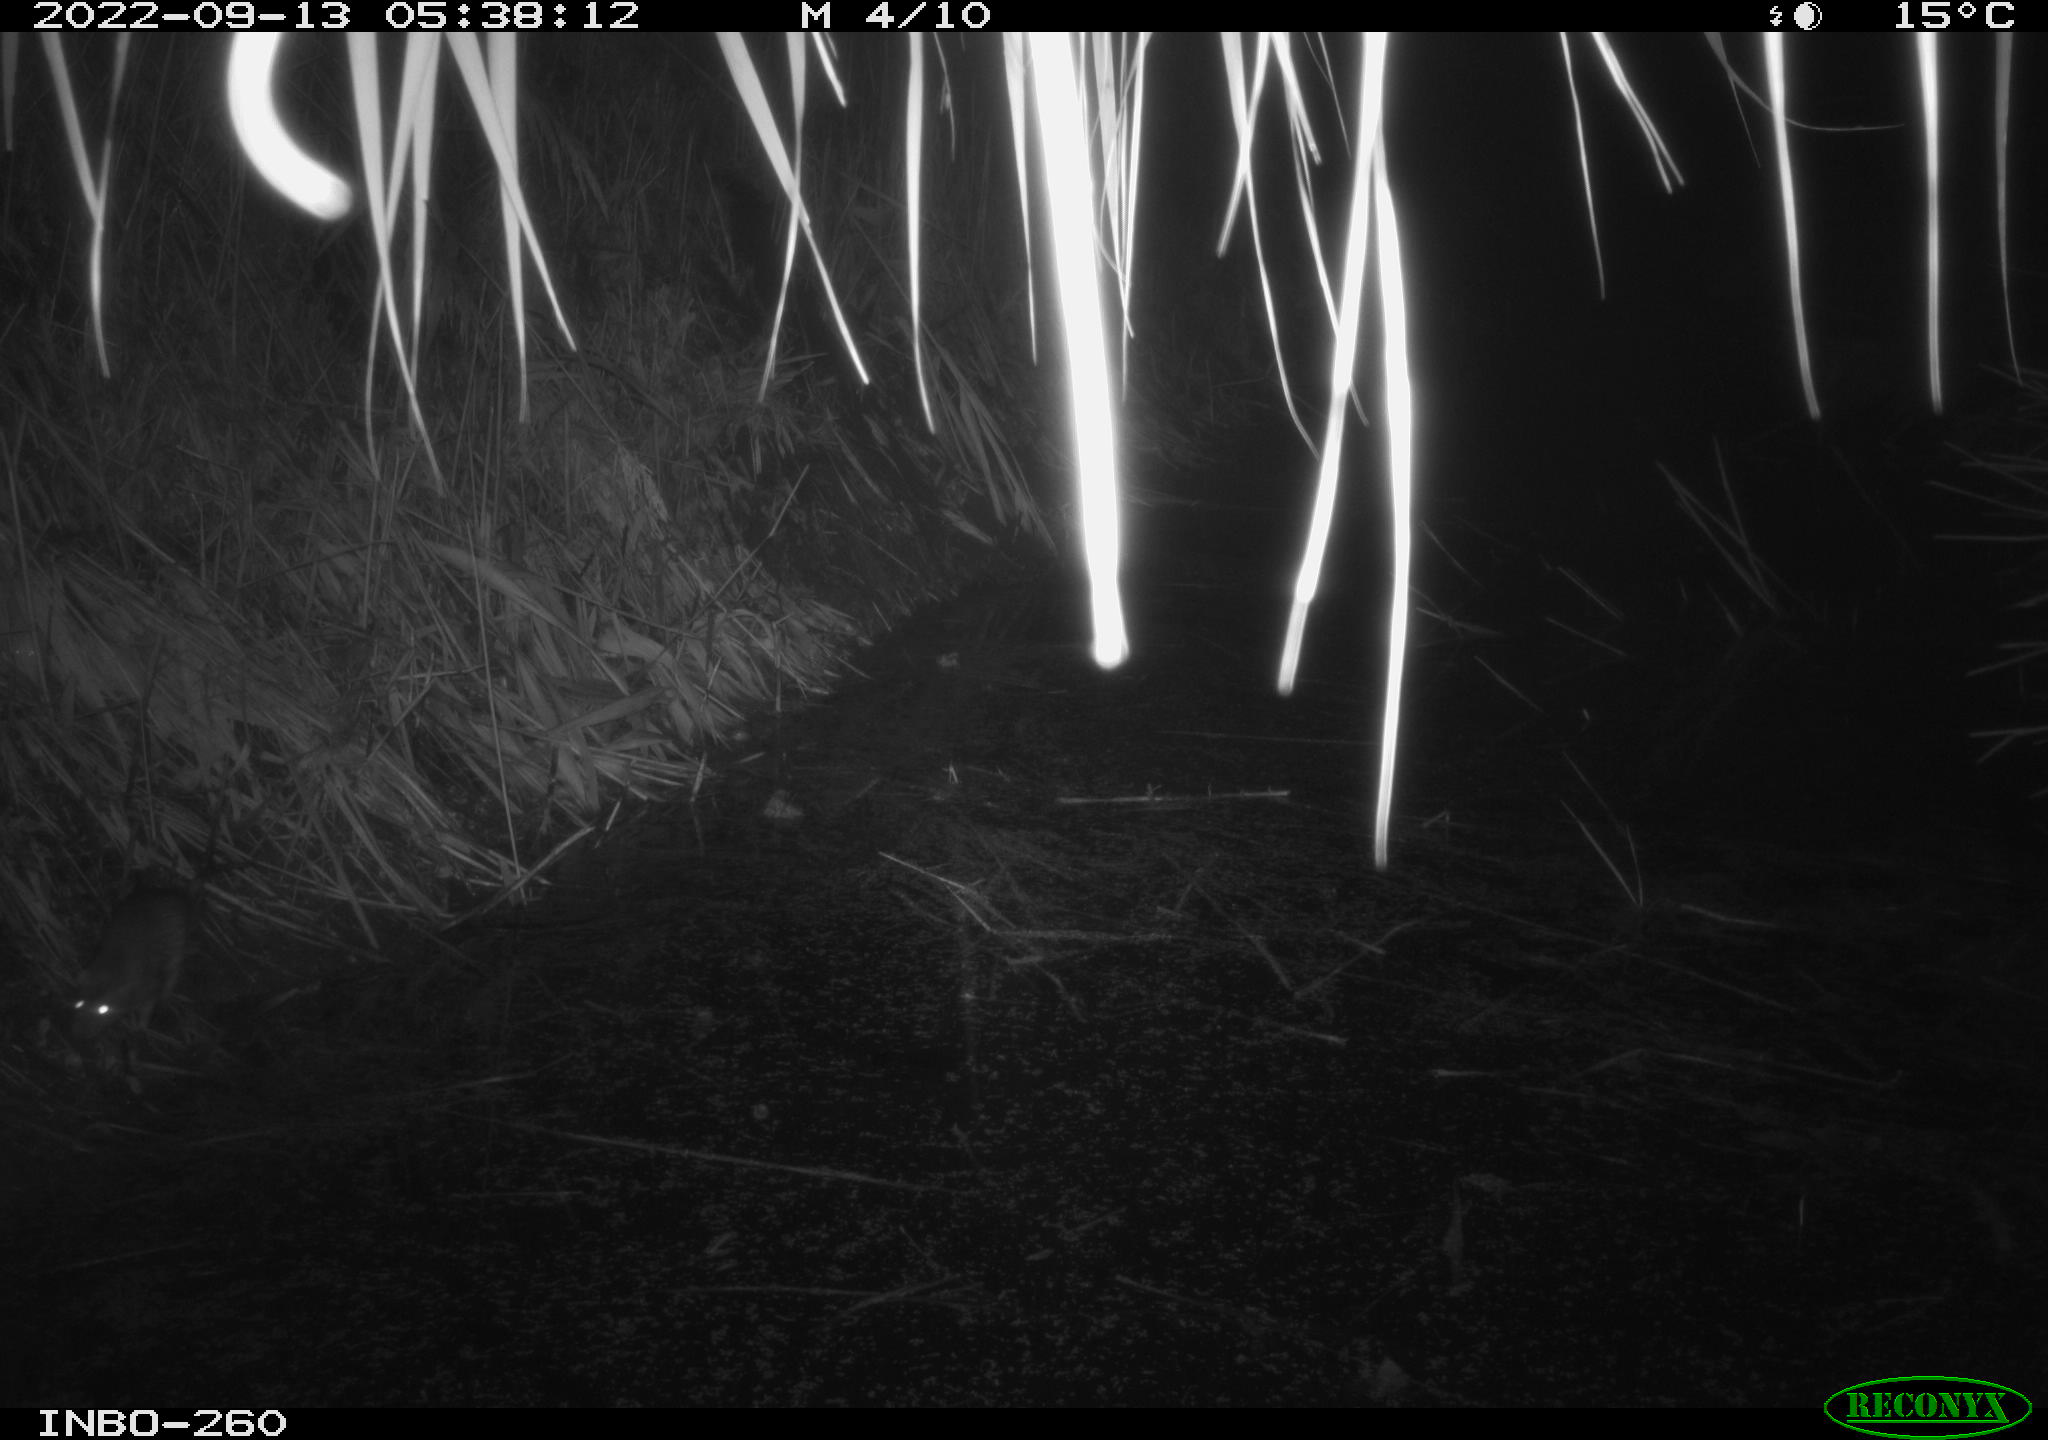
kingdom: Animalia
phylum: Chordata
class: Mammalia
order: Rodentia
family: Muridae
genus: Rattus
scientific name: Rattus norvegicus
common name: Brown rat
